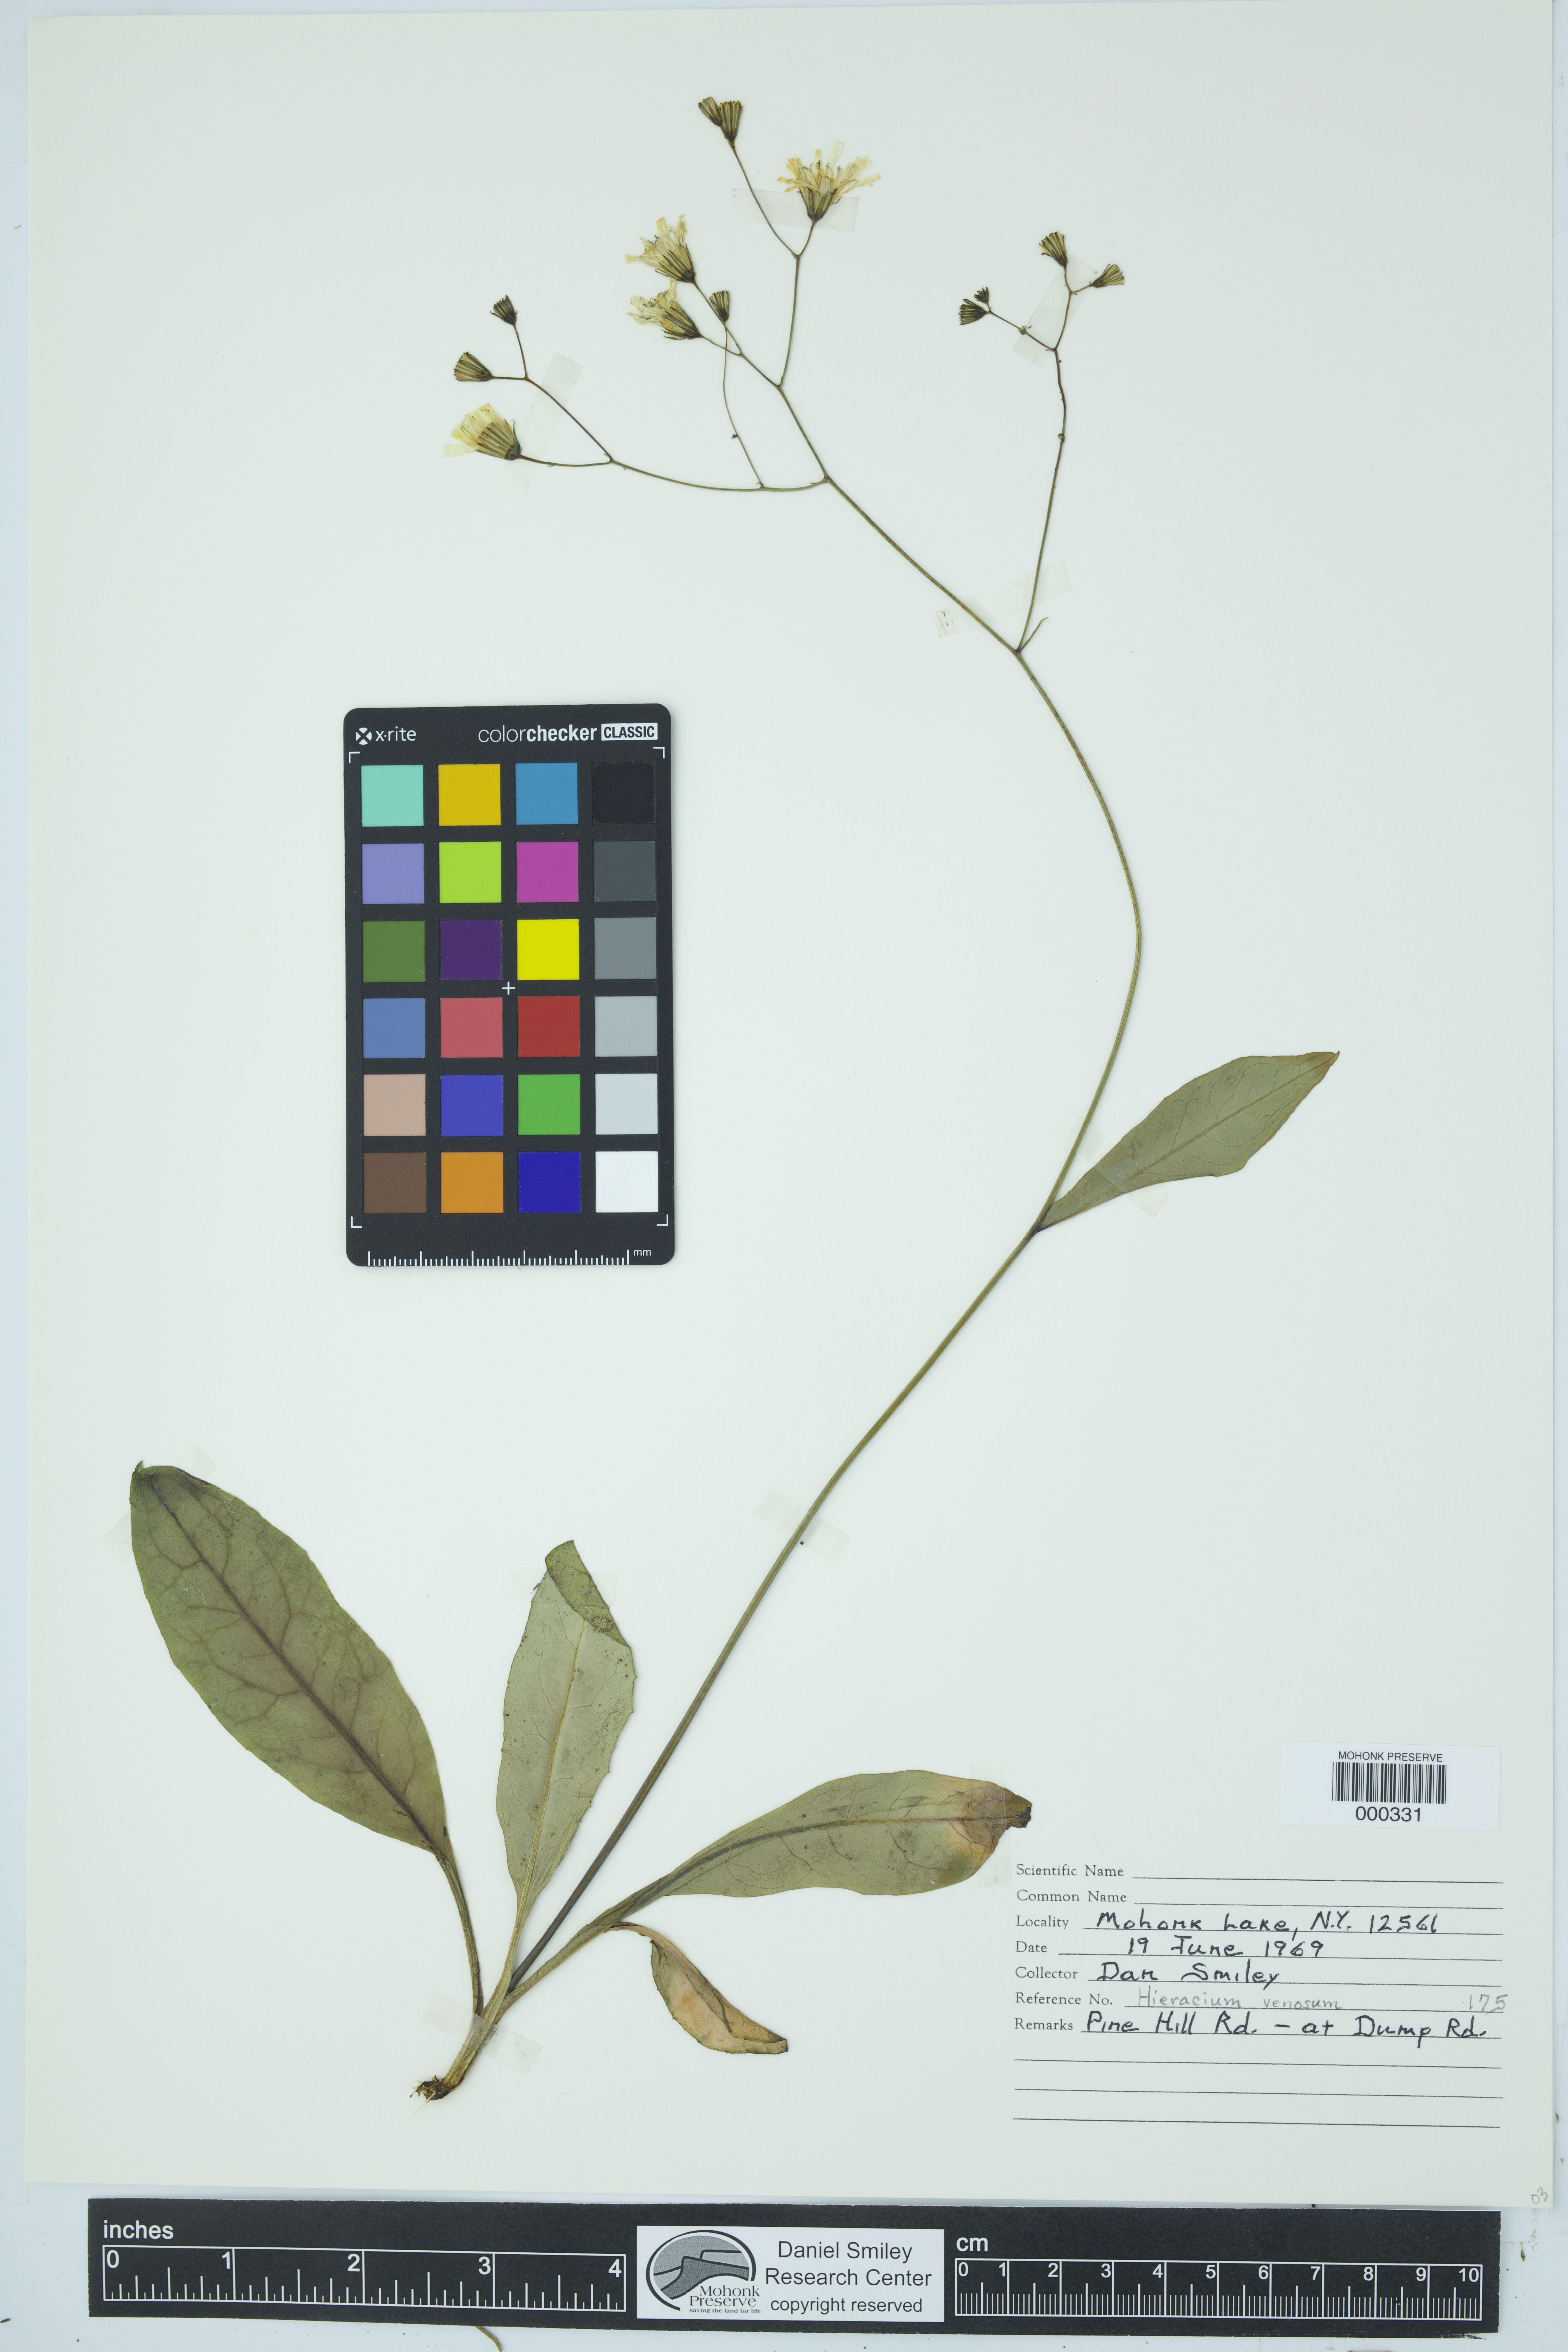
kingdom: Plantae
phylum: Tracheophyta
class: Magnoliopsida
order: Asterales
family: Asteraceae
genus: Hieracium
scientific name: Hieracium venosum
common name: Rattlesnake hawkweed
